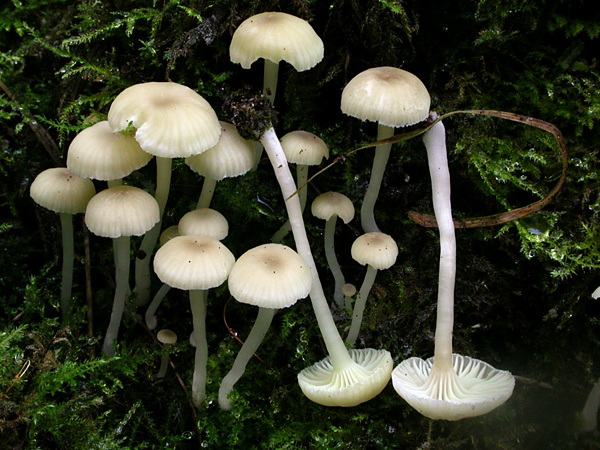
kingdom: Fungi
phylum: Basidiomycota
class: Agaricomycetes
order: Agaricales
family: Hygrophoraceae
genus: Chrysomphalina
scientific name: Chrysomphalina grossula
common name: stød-gyldenblad
